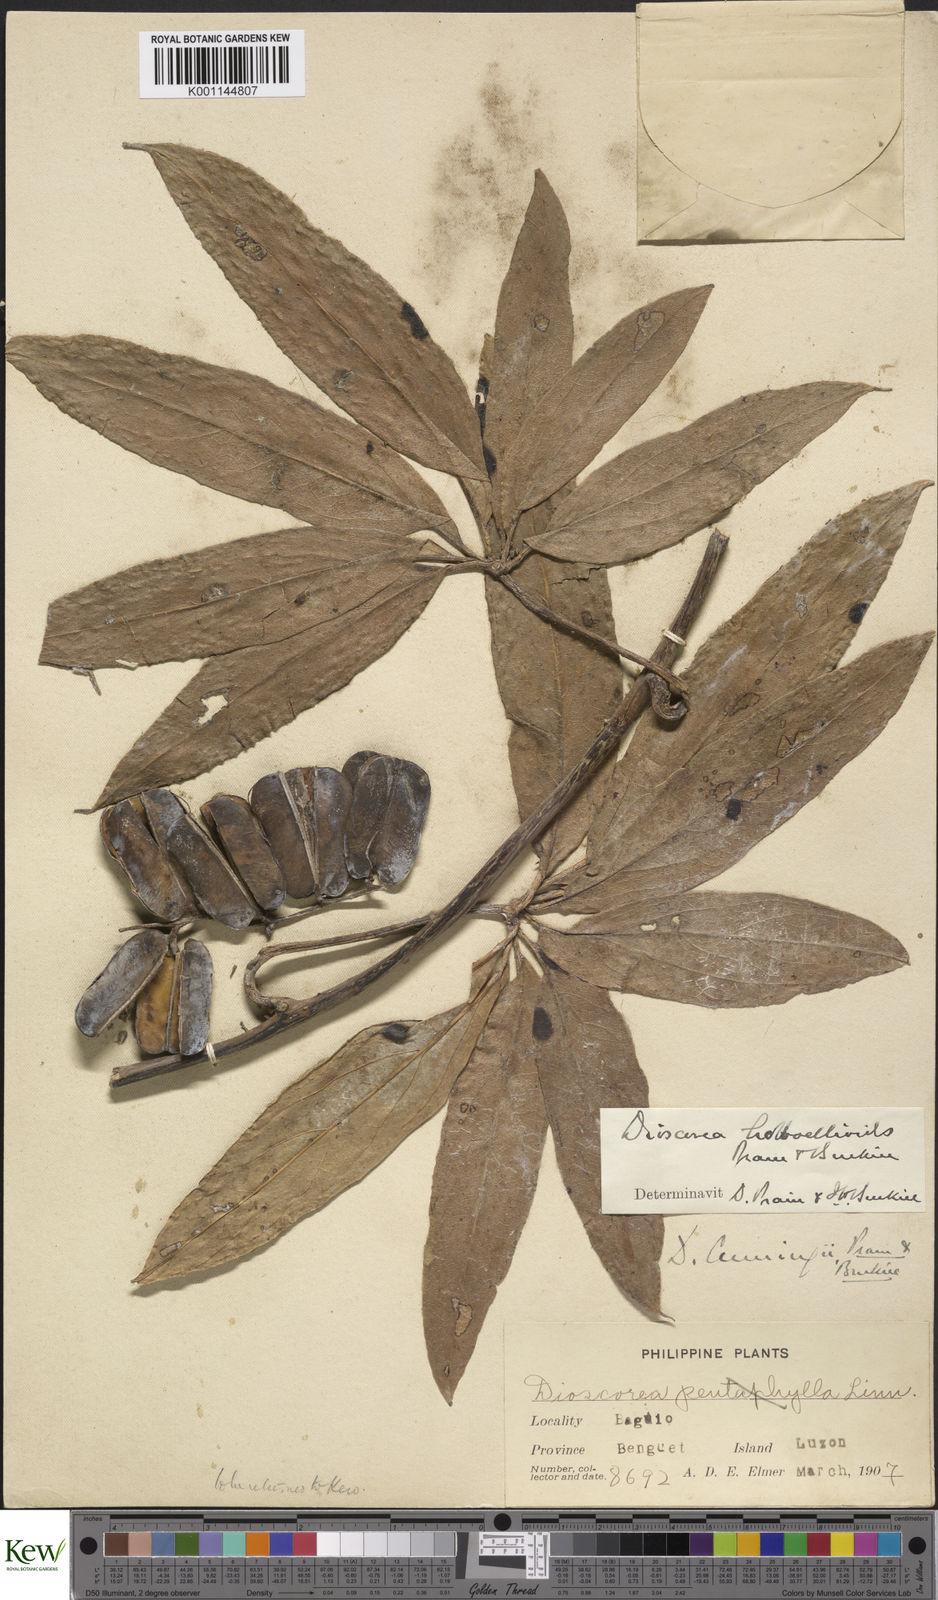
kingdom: Plantae
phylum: Tracheophyta
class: Liliopsida
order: Dioscoreales
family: Dioscoreaceae
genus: Dioscorea
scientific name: Dioscorea cumingii
